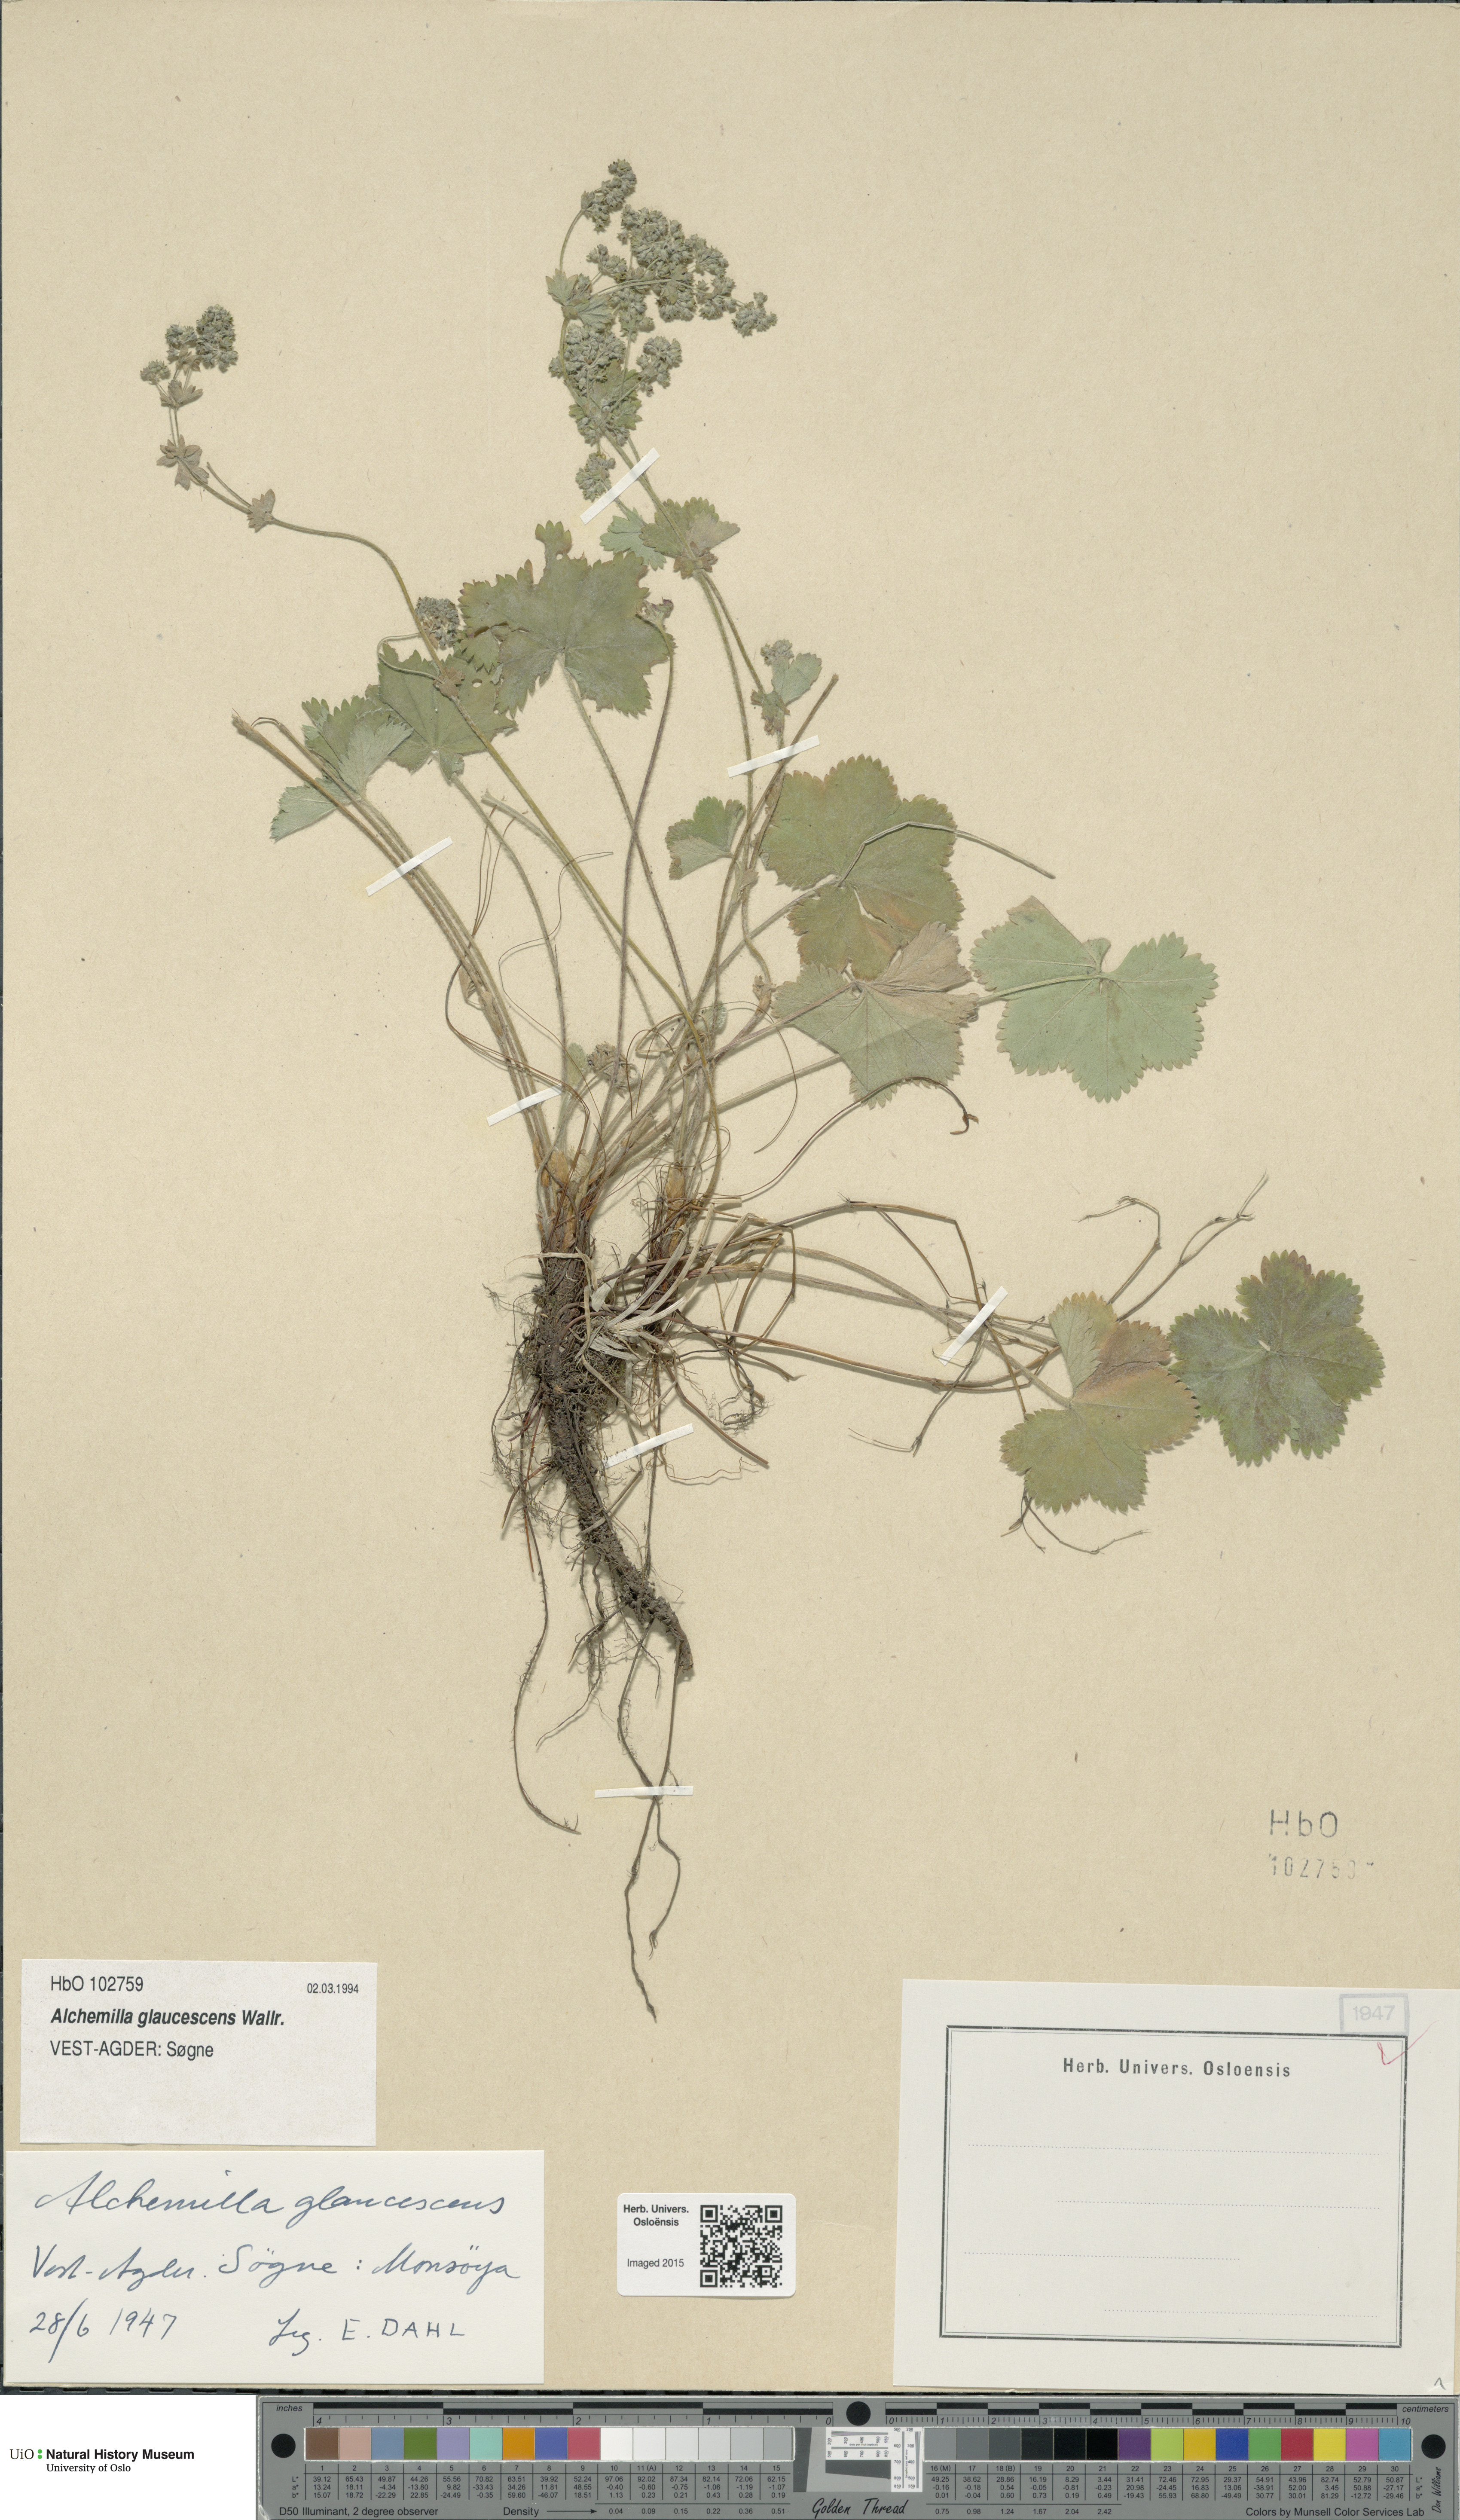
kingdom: Plantae
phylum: Tracheophyta
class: Magnoliopsida
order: Rosales
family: Rosaceae
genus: Alchemilla
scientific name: Alchemilla glaucescens
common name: Silky lady's mantle
